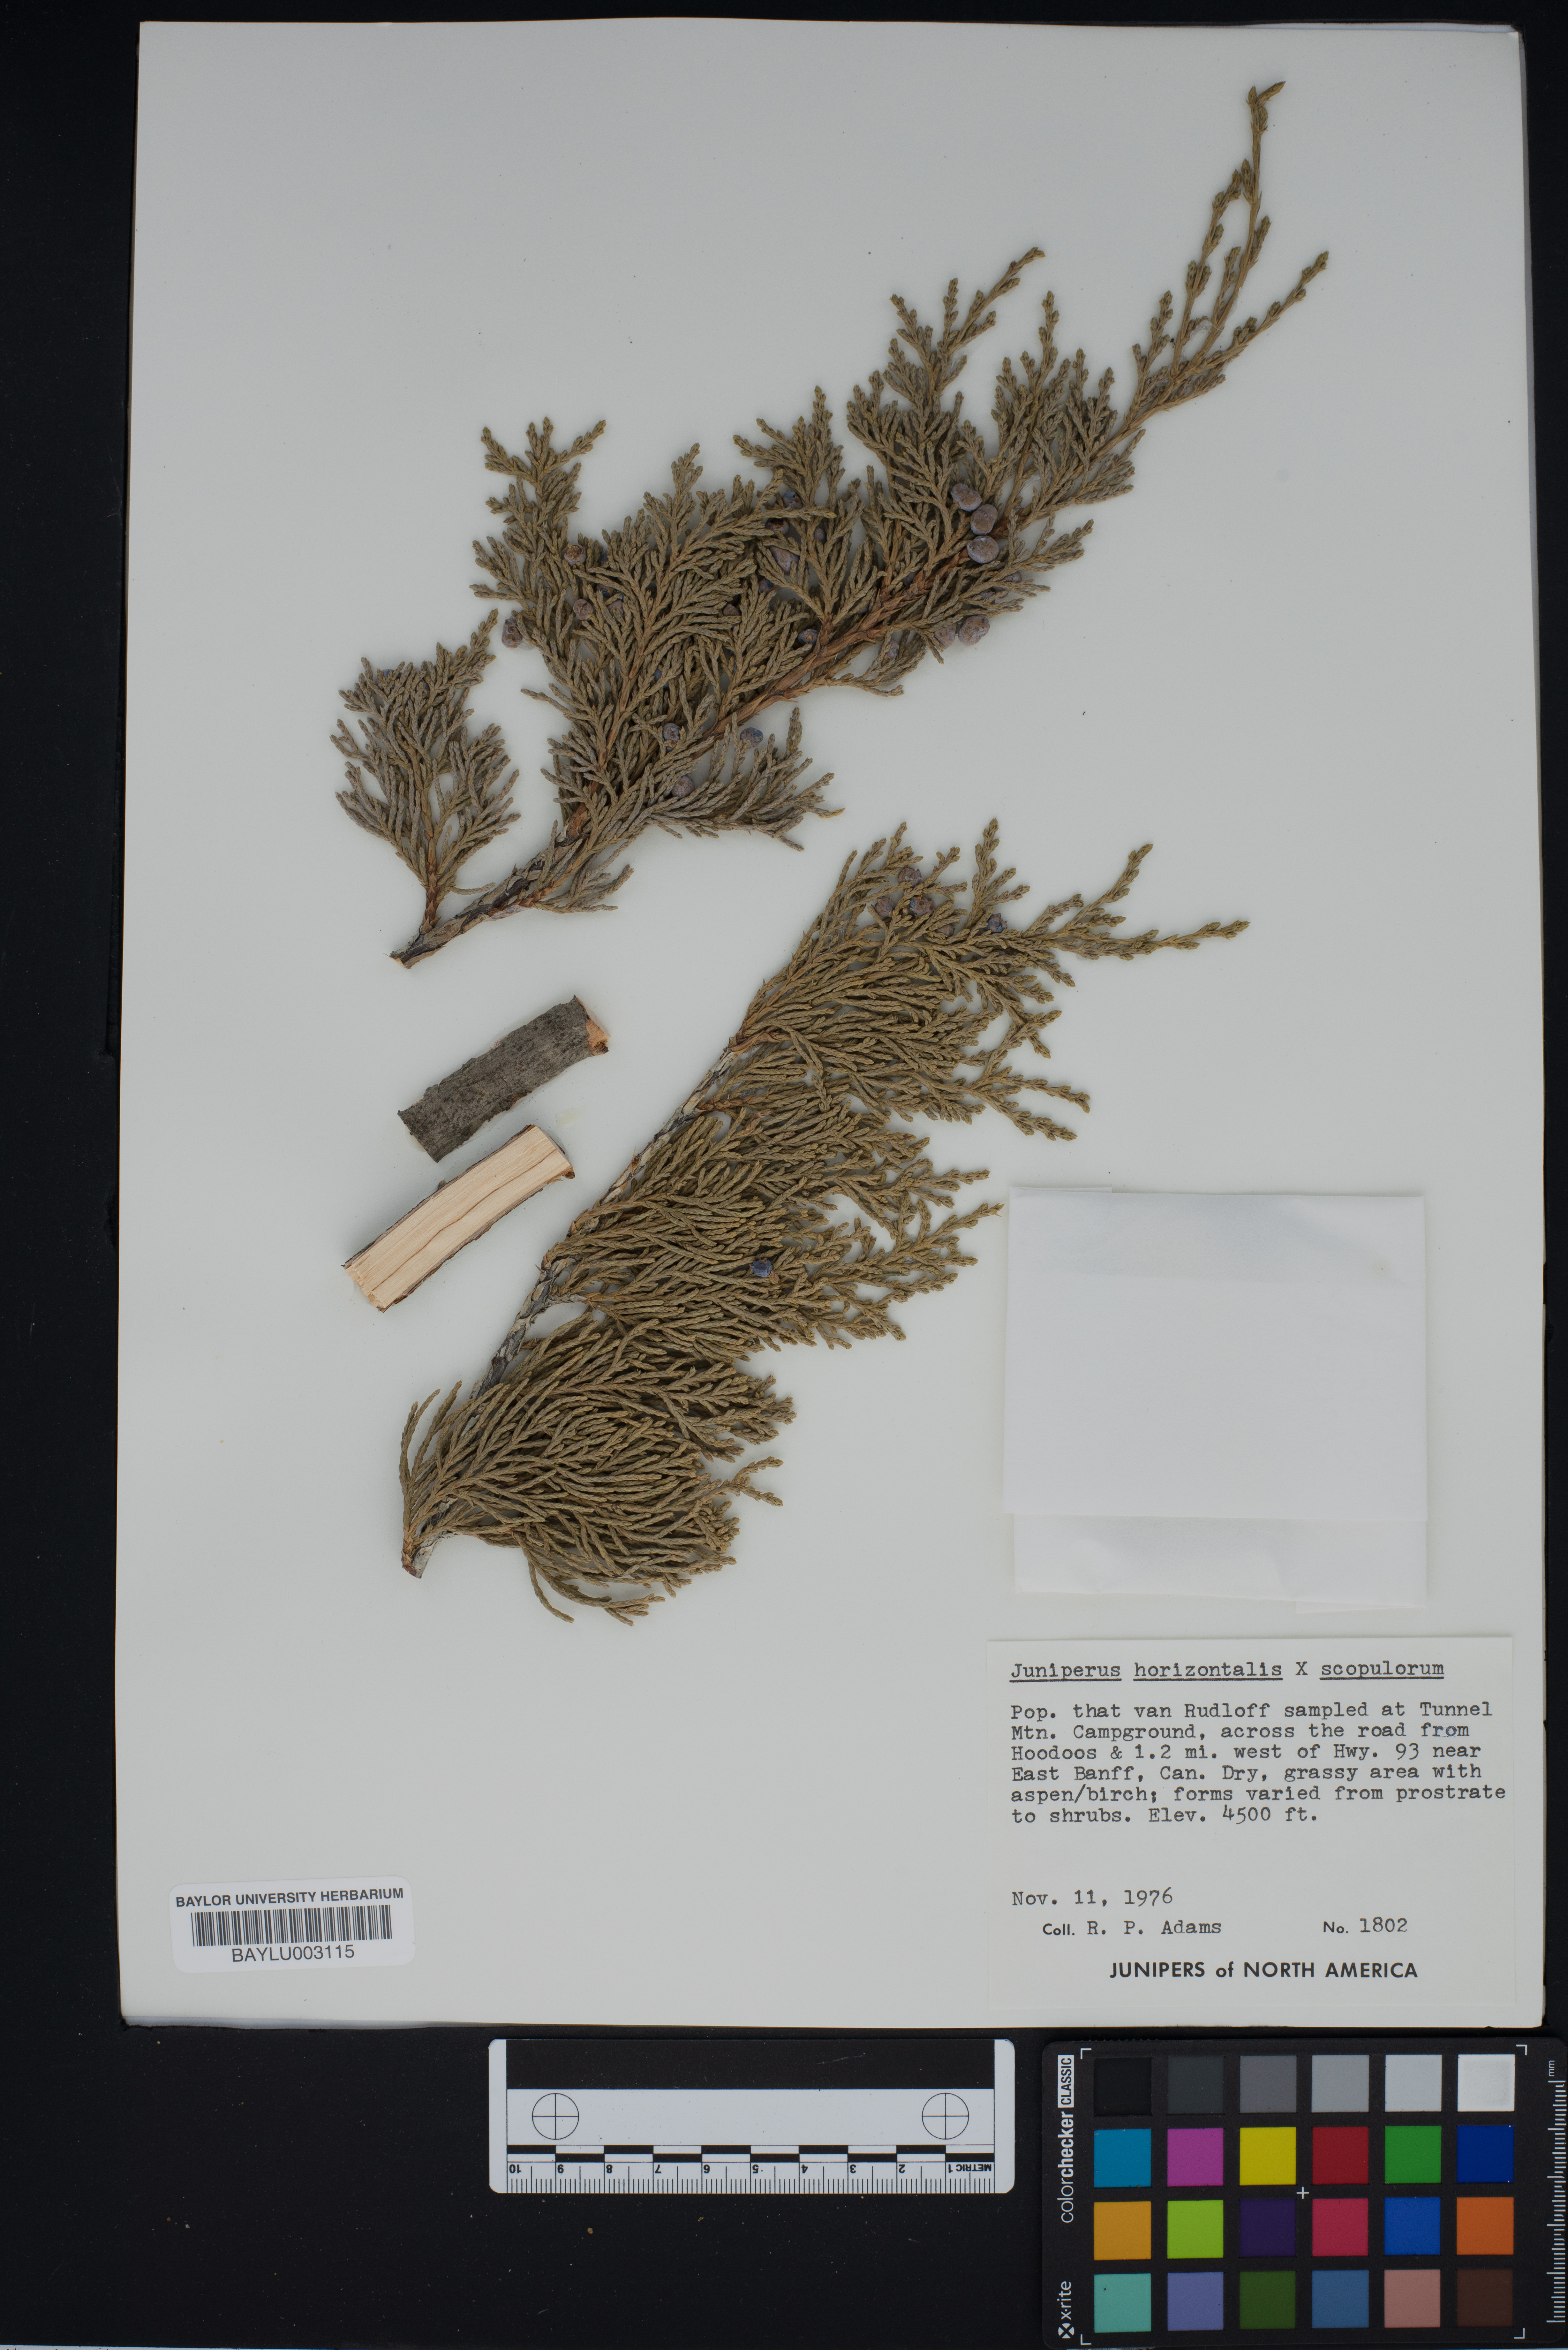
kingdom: Plantae
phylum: Tracheophyta
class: Pinopsida
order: Pinales
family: Cupressaceae
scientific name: Cupressaceae
